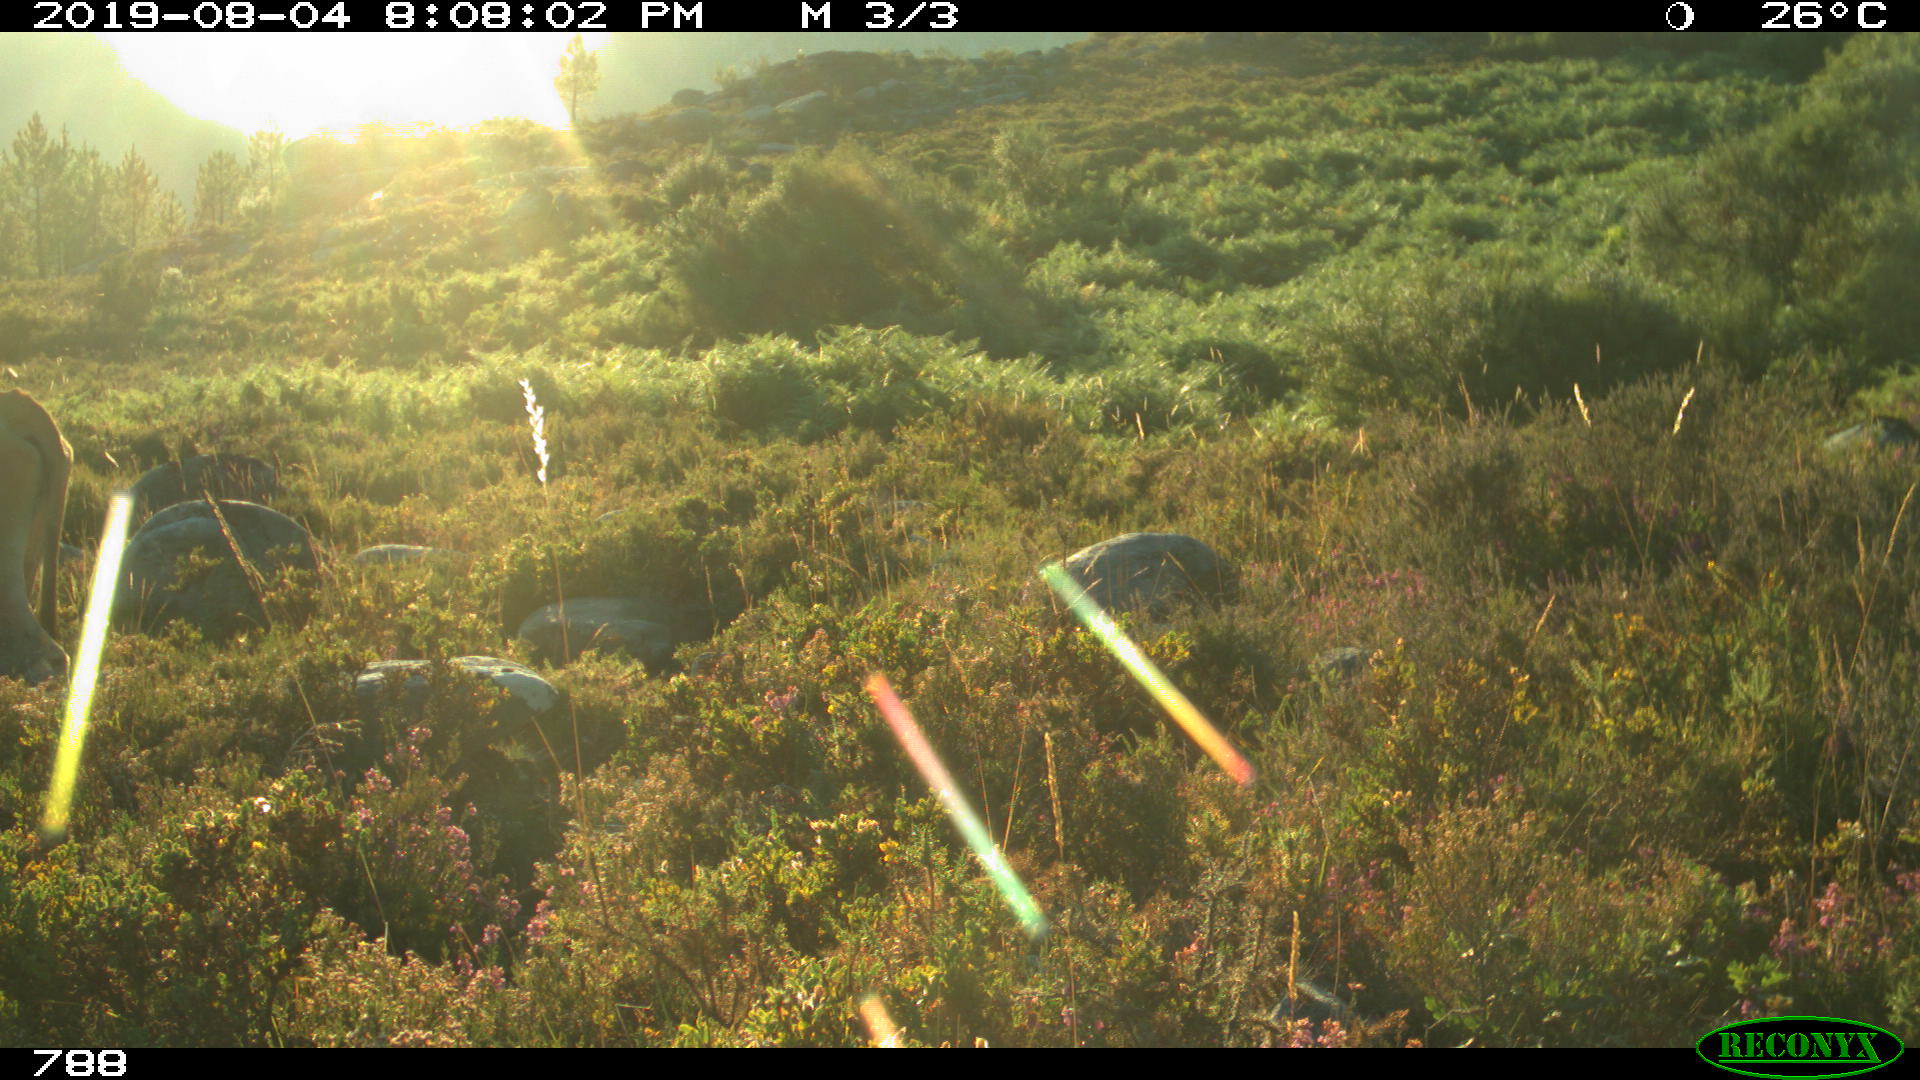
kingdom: Animalia
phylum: Chordata
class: Mammalia
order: Artiodactyla
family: Bovidae
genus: Bos
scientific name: Bos taurus
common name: Domesticated cattle
